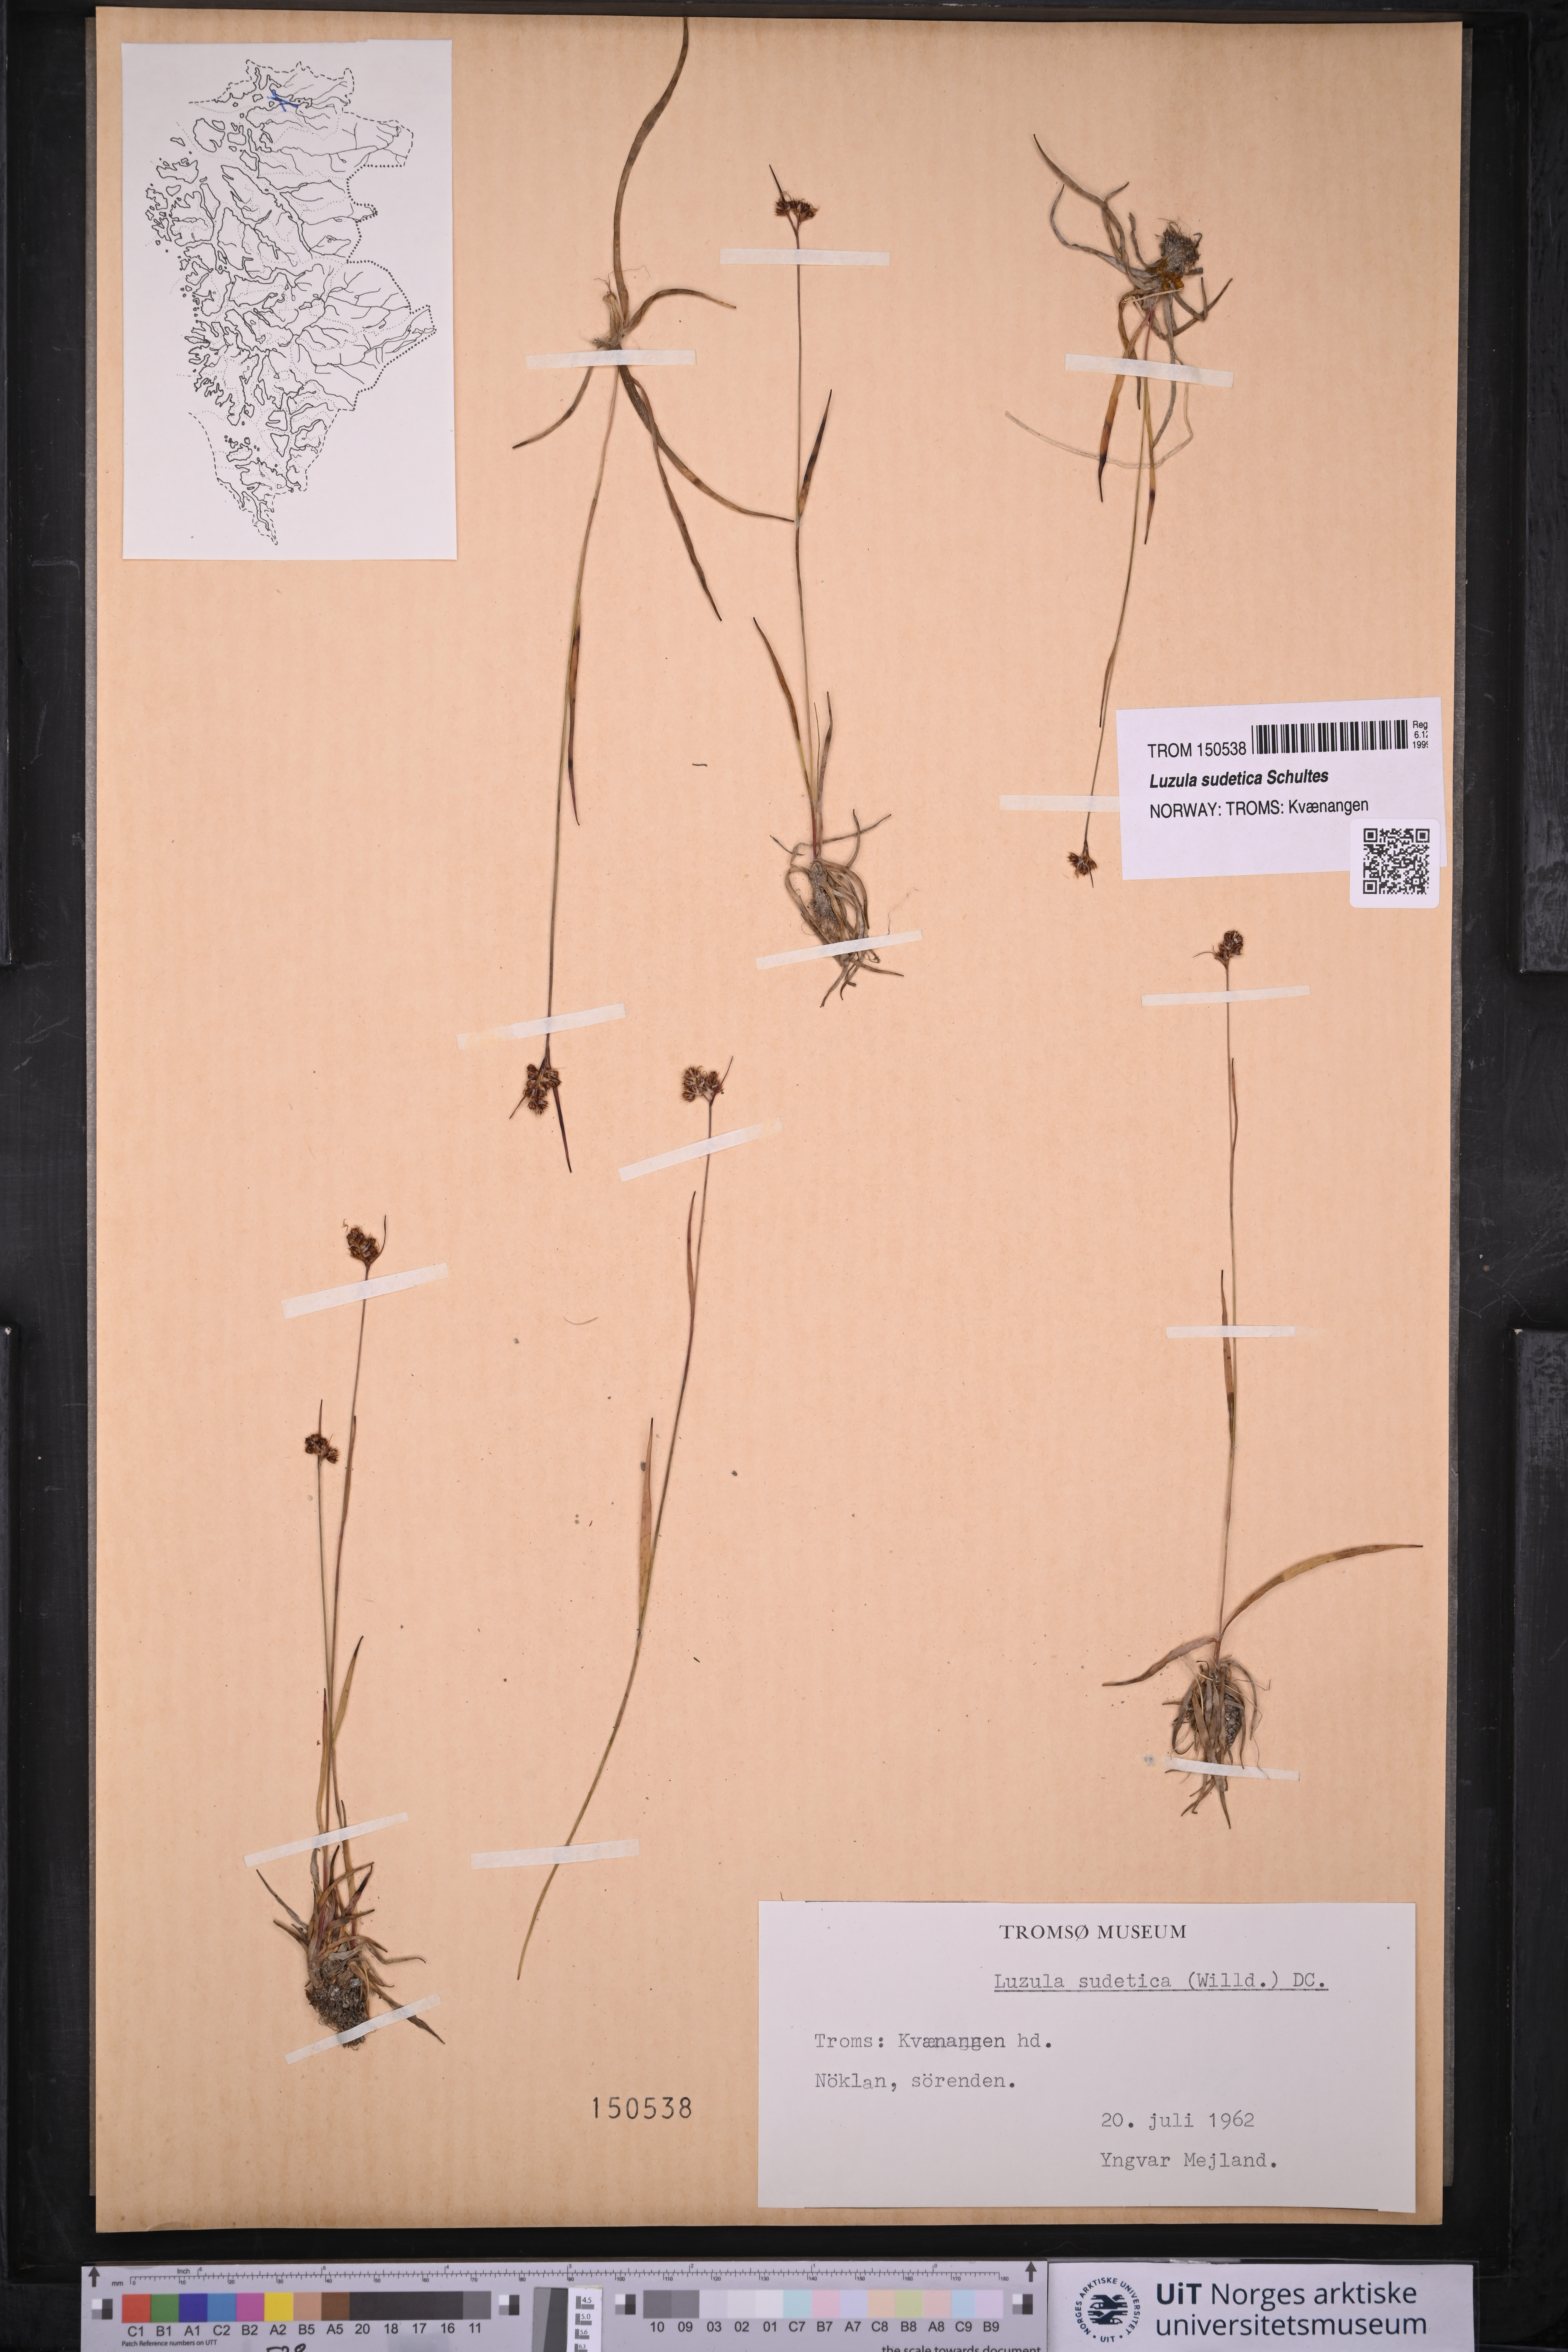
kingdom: Plantae
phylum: Tracheophyta
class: Liliopsida
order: Poales
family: Juncaceae
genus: Luzula
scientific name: Luzula sudetica
